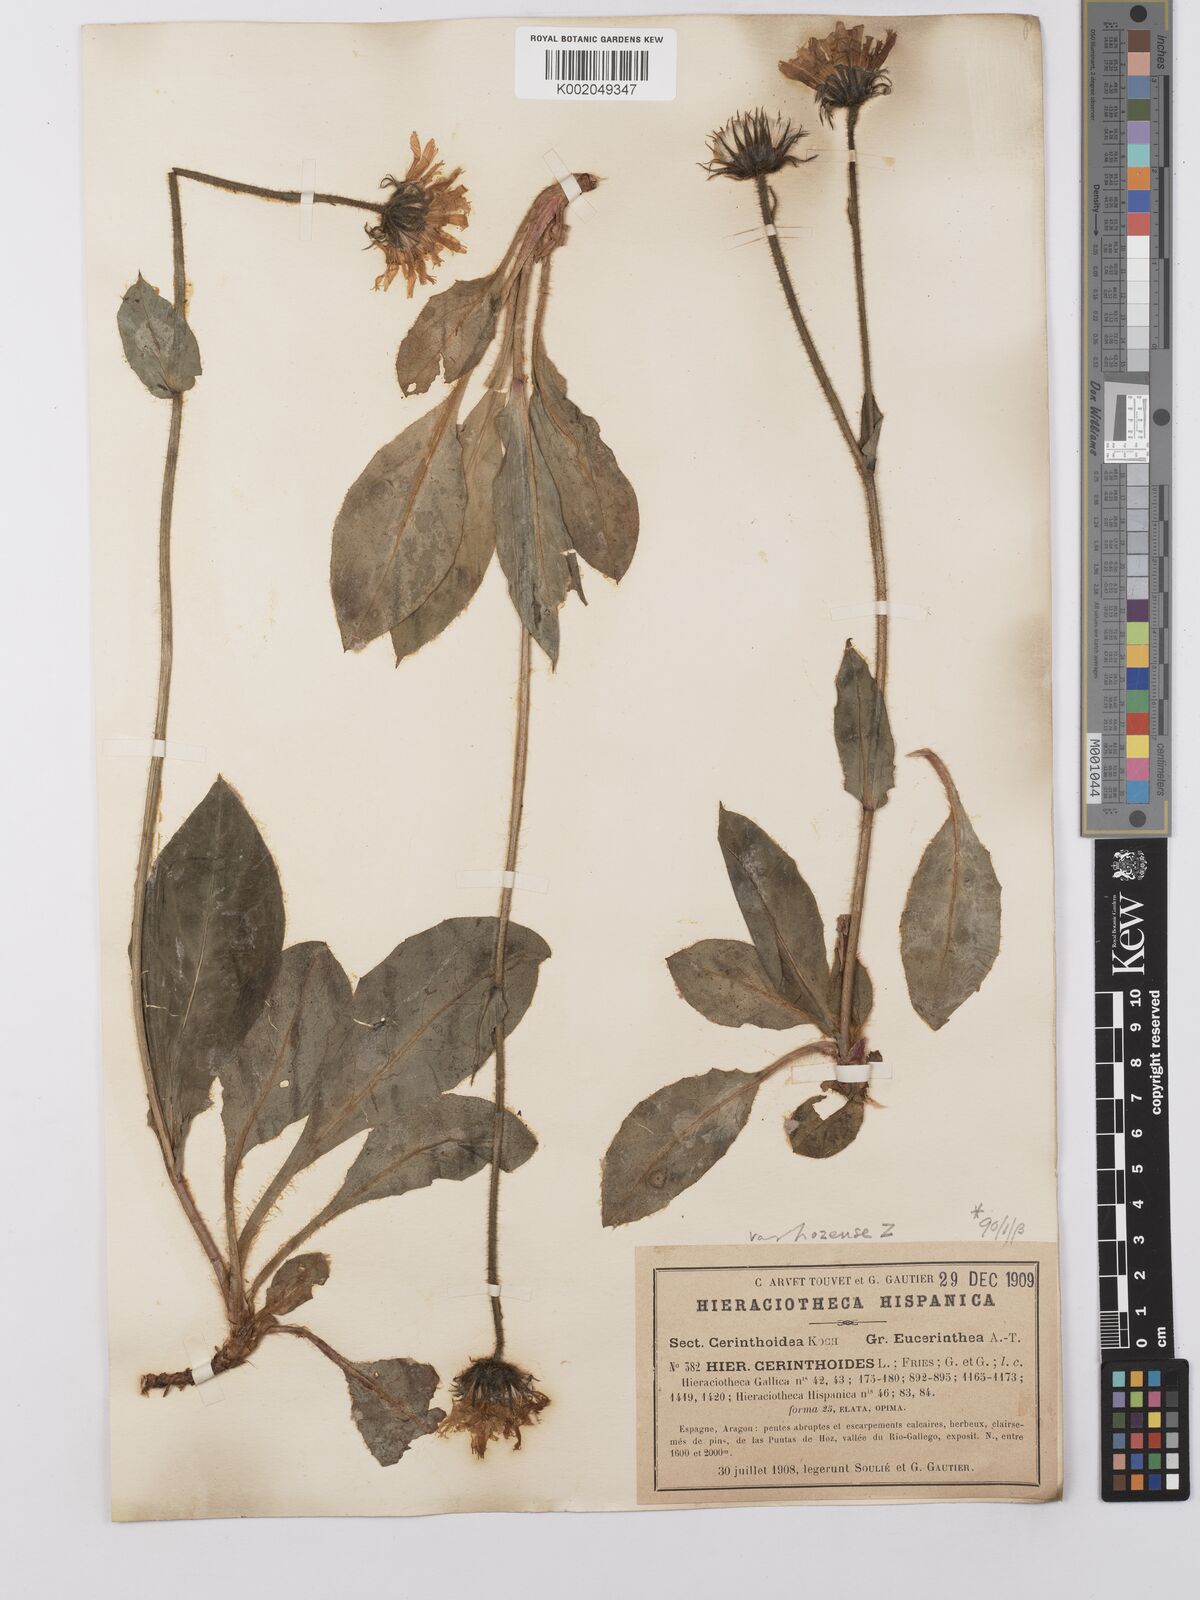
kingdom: Plantae
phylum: Tracheophyta
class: Magnoliopsida
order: Asterales
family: Asteraceae
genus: Hieracium
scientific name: Hieracium cerinthoides
